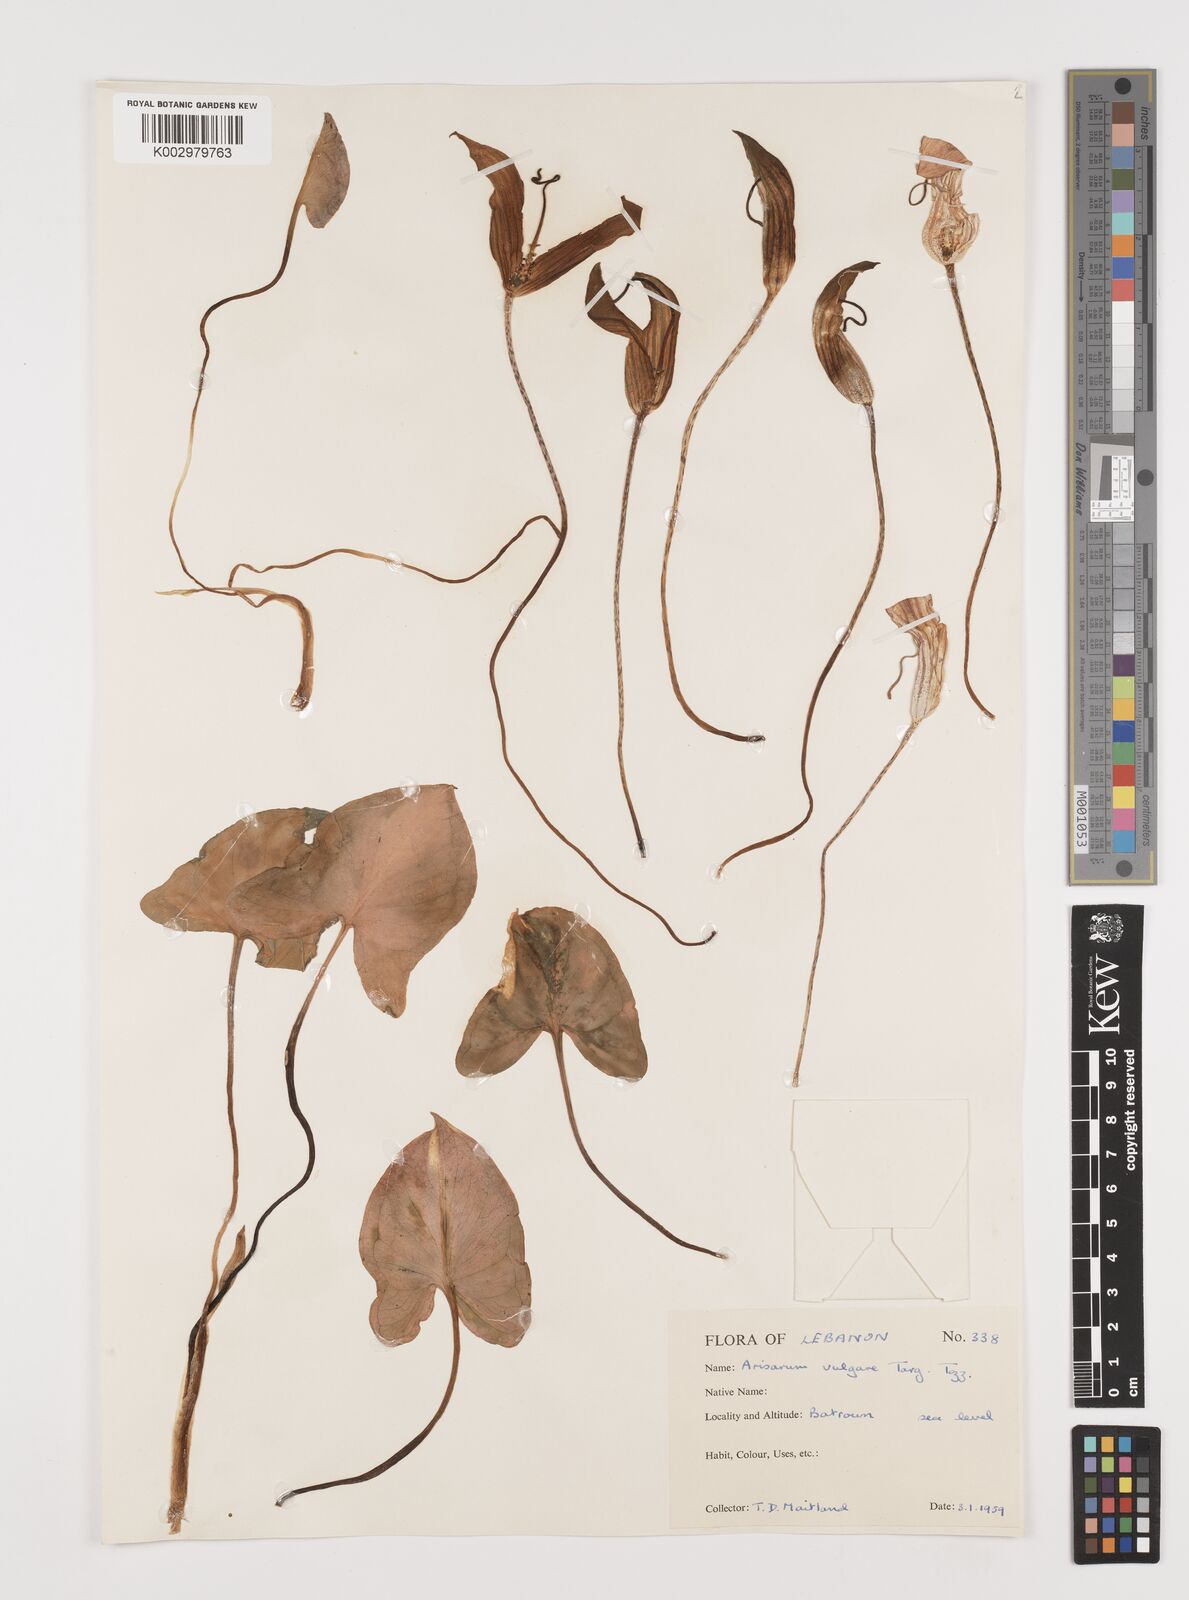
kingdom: Plantae
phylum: Tracheophyta
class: Liliopsida
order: Alismatales
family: Araceae
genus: Arisarum
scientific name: Arisarum vulgare
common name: Common arisarum
